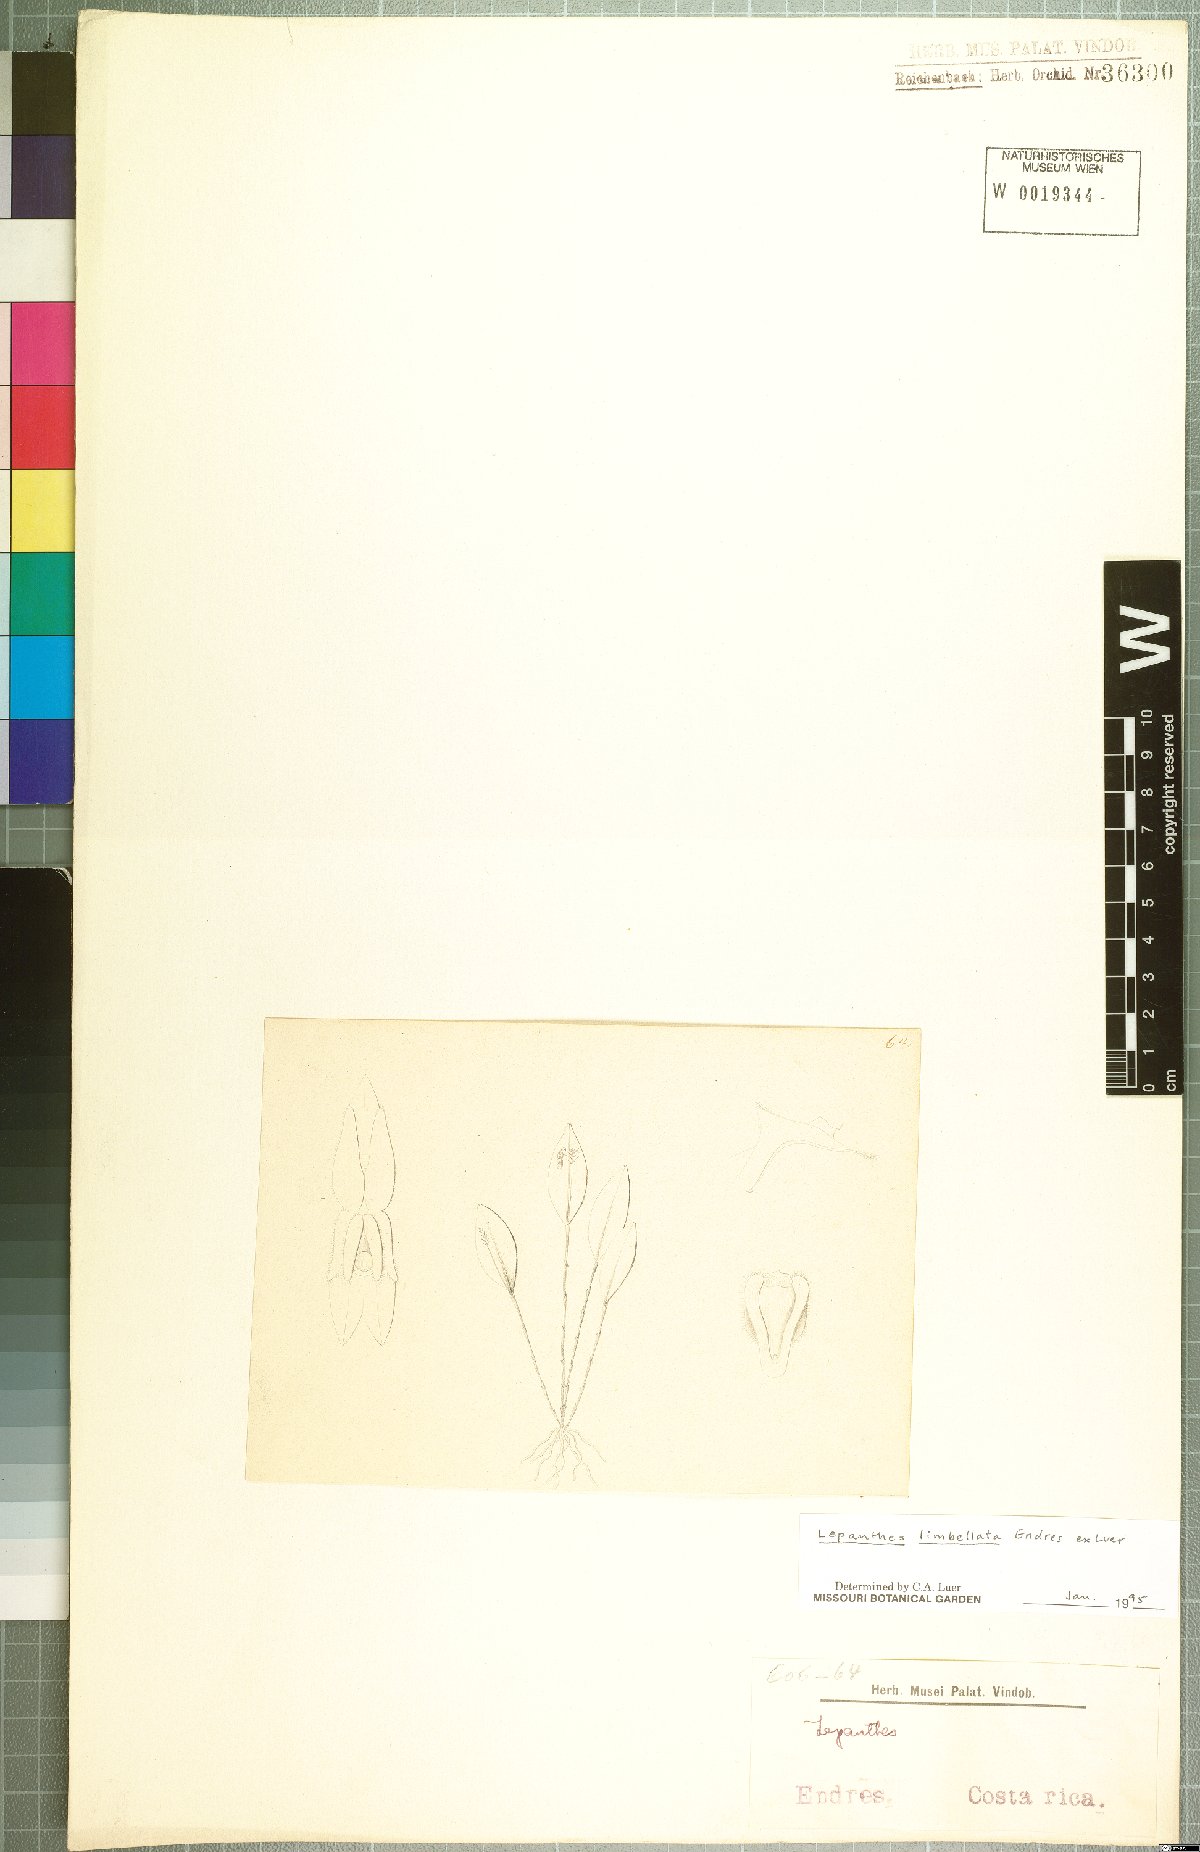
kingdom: Plantae
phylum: Tracheophyta
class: Liliopsida
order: Asparagales
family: Orchidaceae
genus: Lepanthes
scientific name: Lepanthes limbellata
